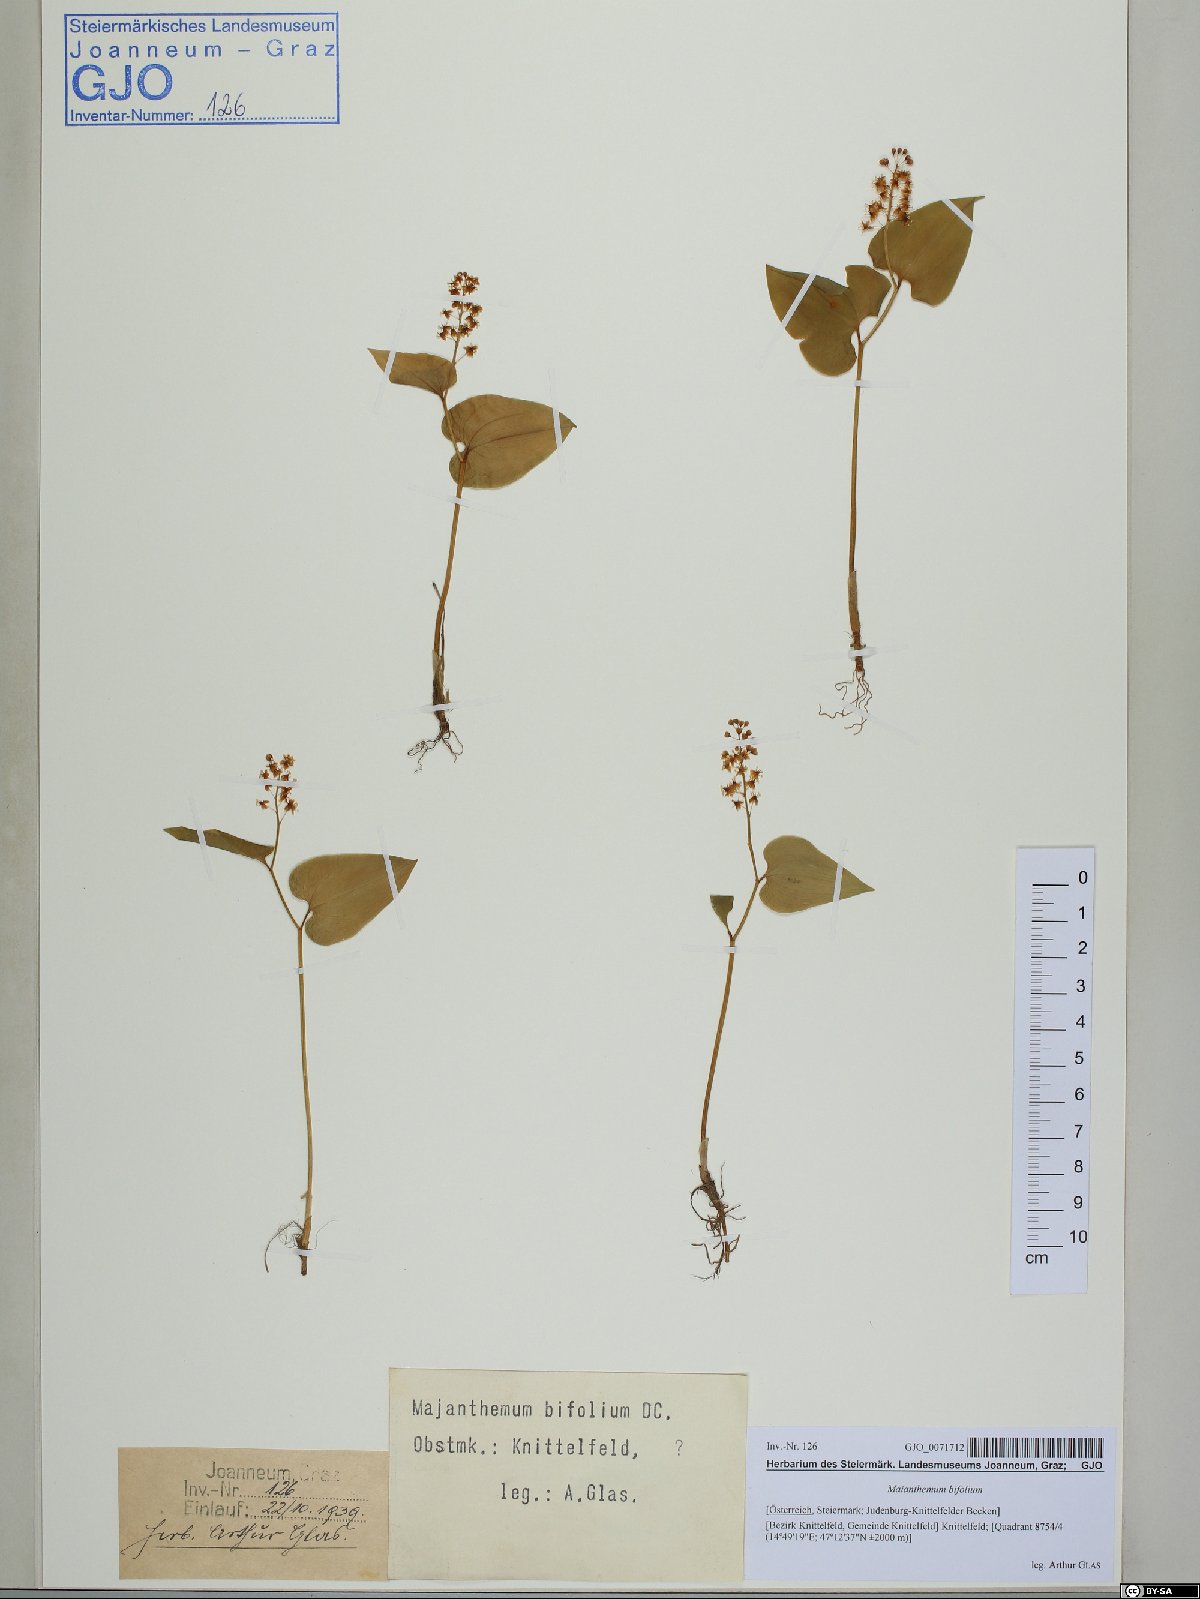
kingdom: Plantae
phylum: Tracheophyta
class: Liliopsida
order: Asparagales
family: Asparagaceae
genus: Maianthemum
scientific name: Maianthemum bifolium
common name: May lily
